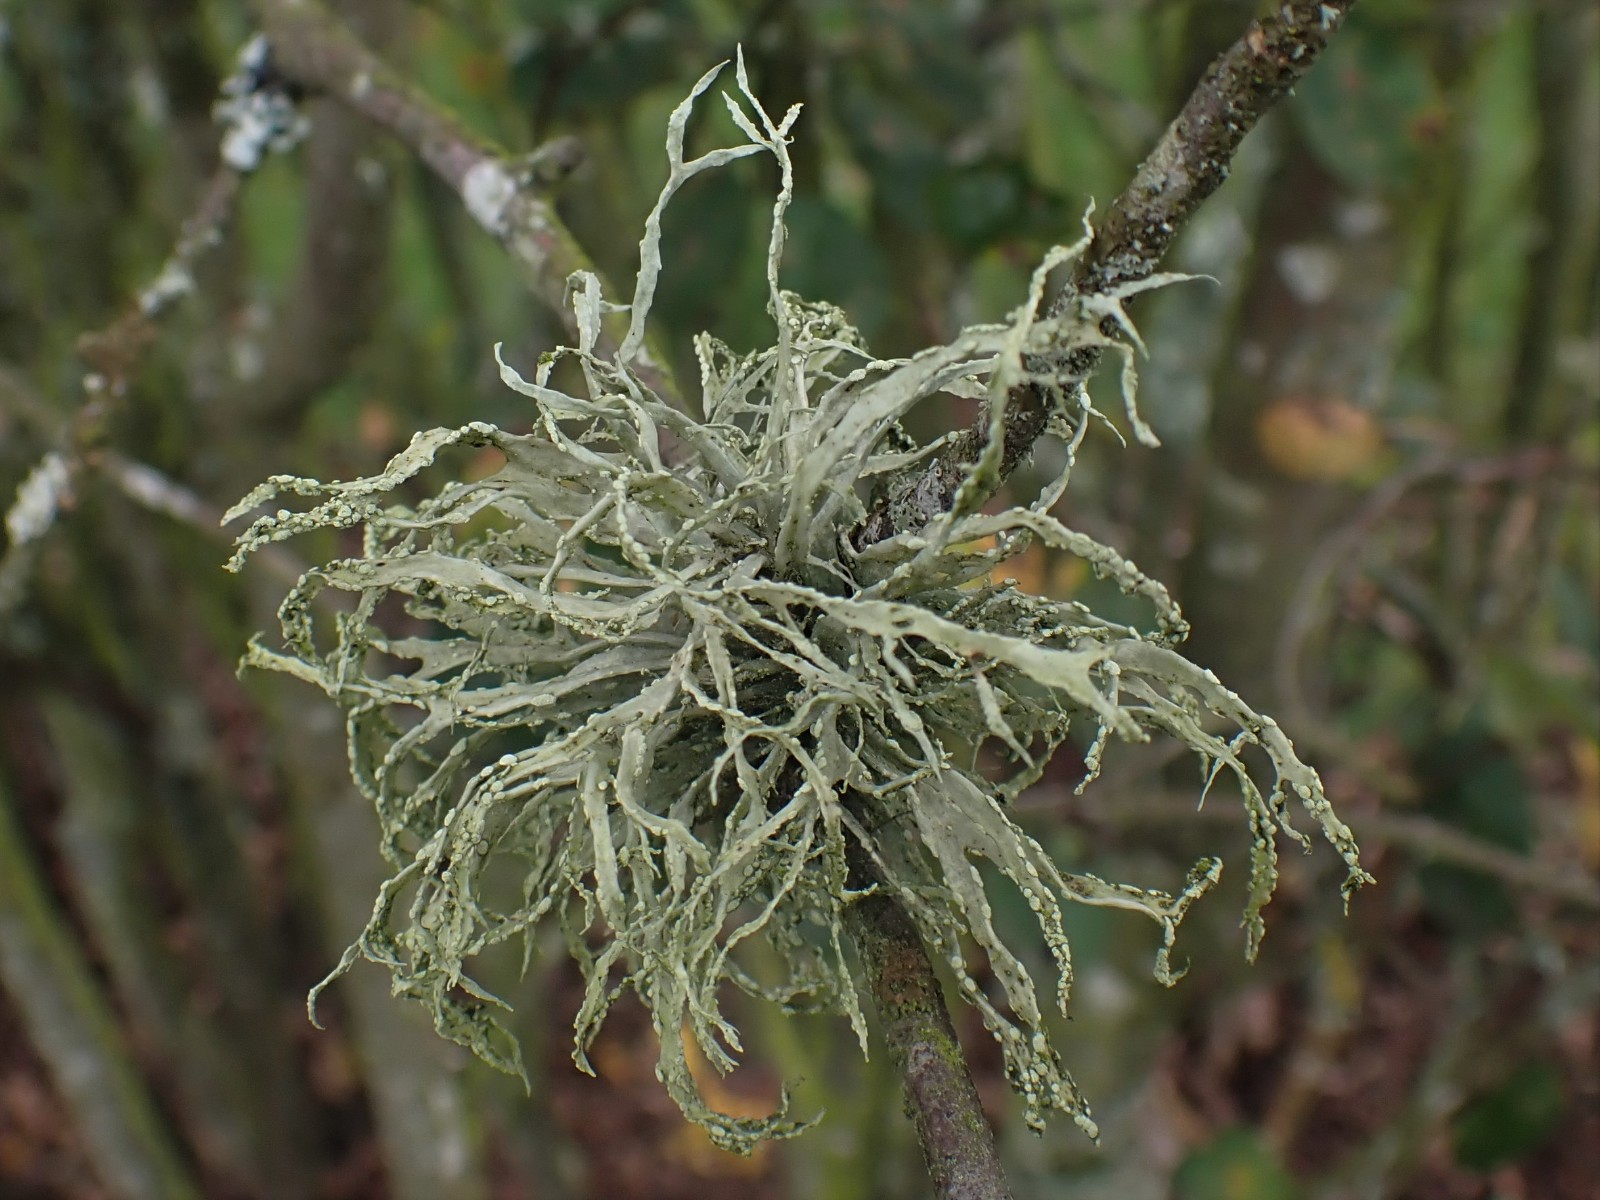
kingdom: Fungi
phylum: Ascomycota
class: Lecanoromycetes
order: Lecanorales
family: Ramalinaceae
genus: Ramalina
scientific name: Ramalina farinacea
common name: melet grenlav
